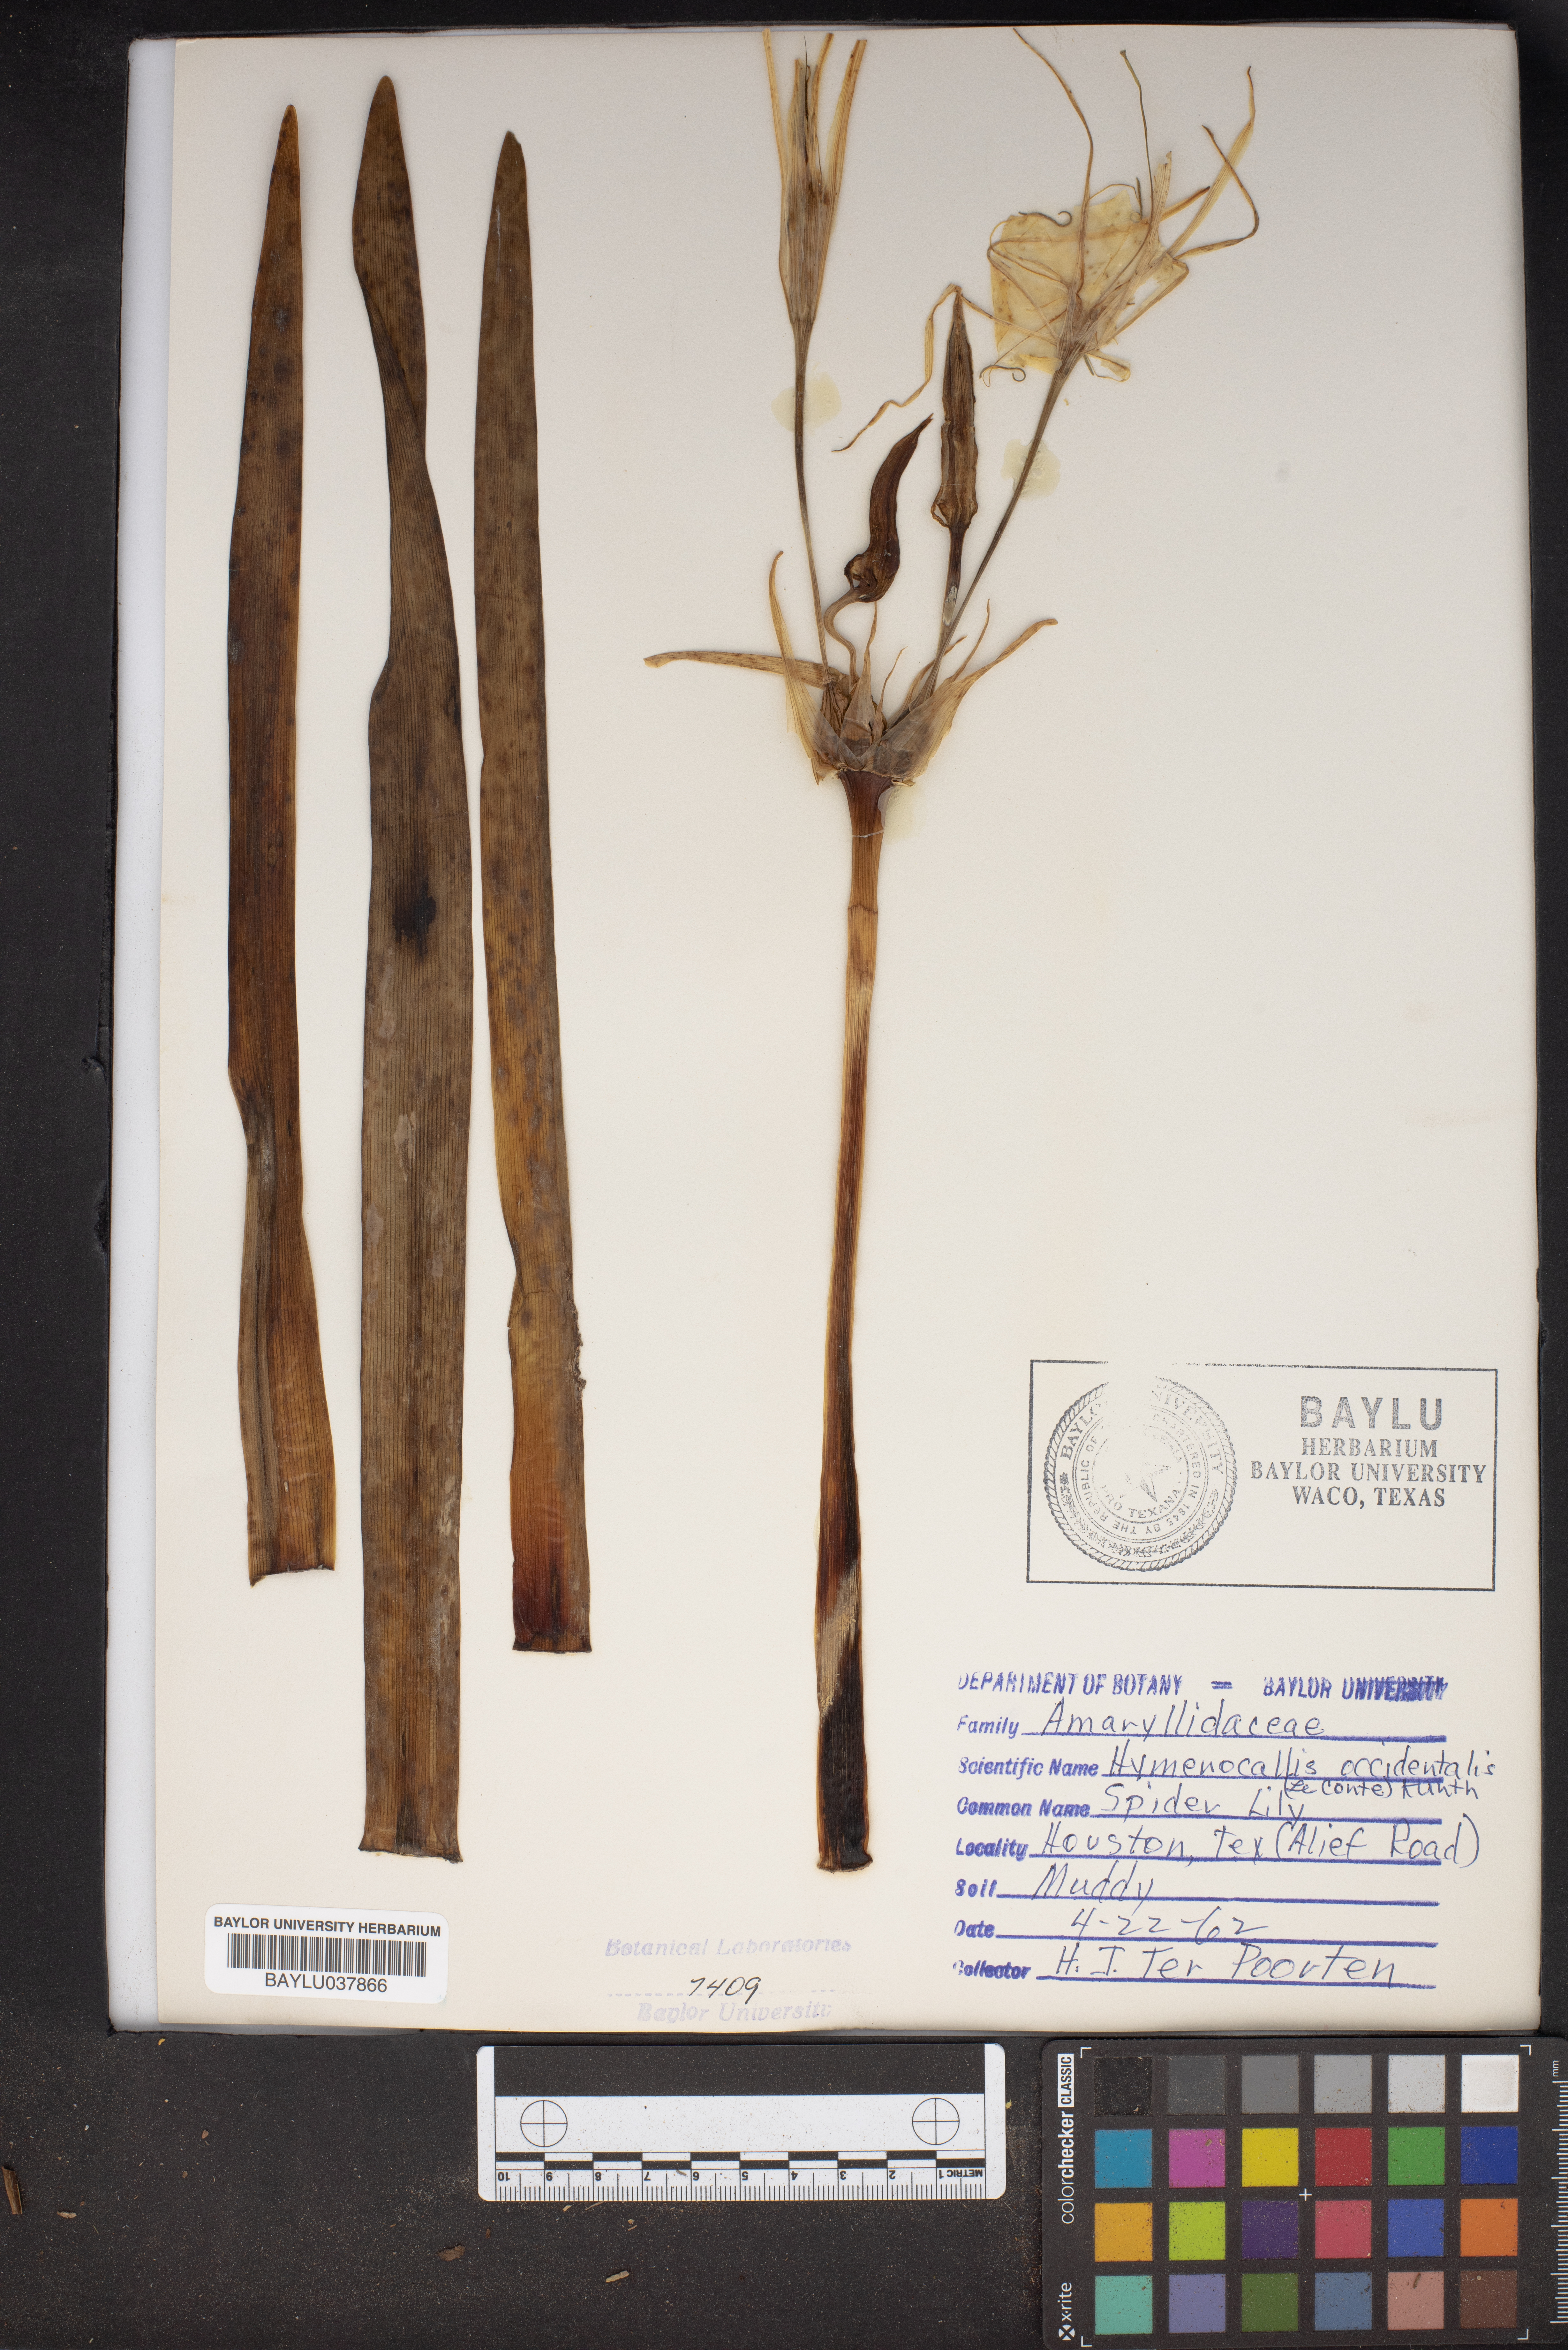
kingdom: Plantae
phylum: Tracheophyta
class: Liliopsida
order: Asparagales
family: Amaryllidaceae
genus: Hymenocallis
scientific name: Hymenocallis occidentalis
